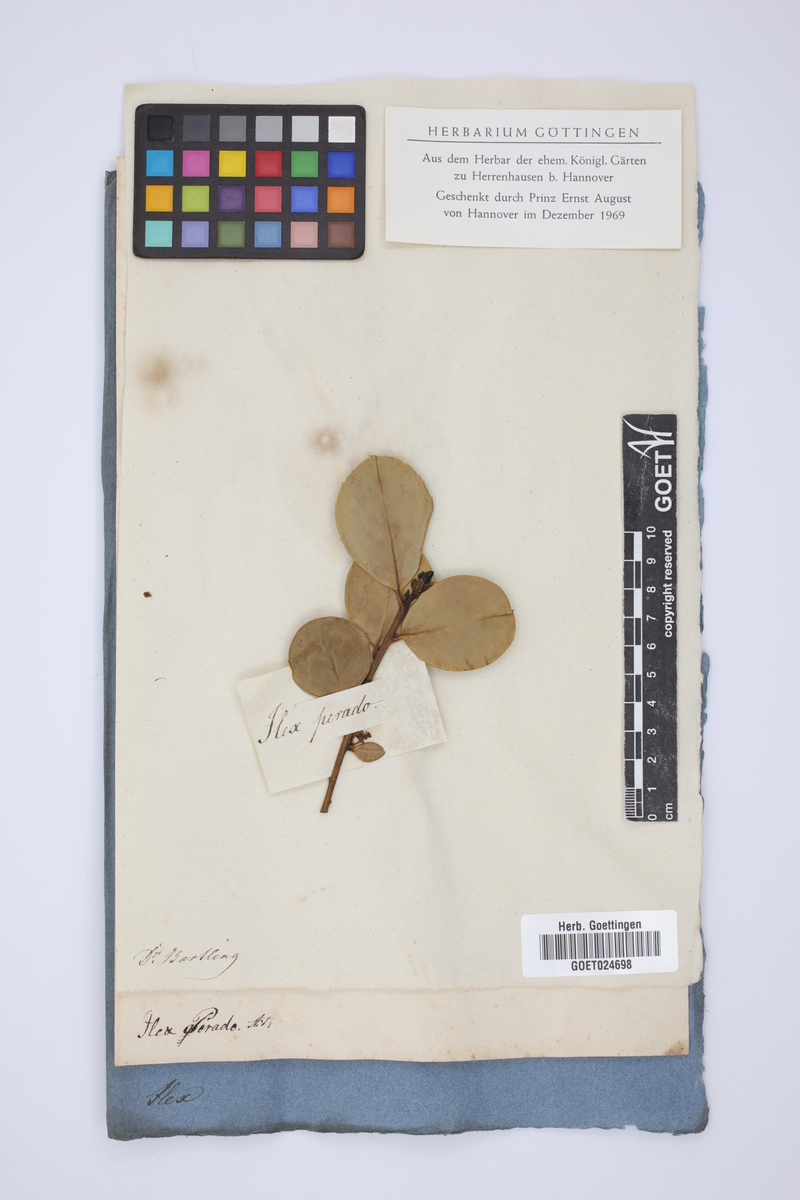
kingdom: Plantae
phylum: Tracheophyta
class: Magnoliopsida
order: Aquifoliales
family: Aquifoliaceae
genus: Ilex
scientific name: Ilex perado
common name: Madeira holly
